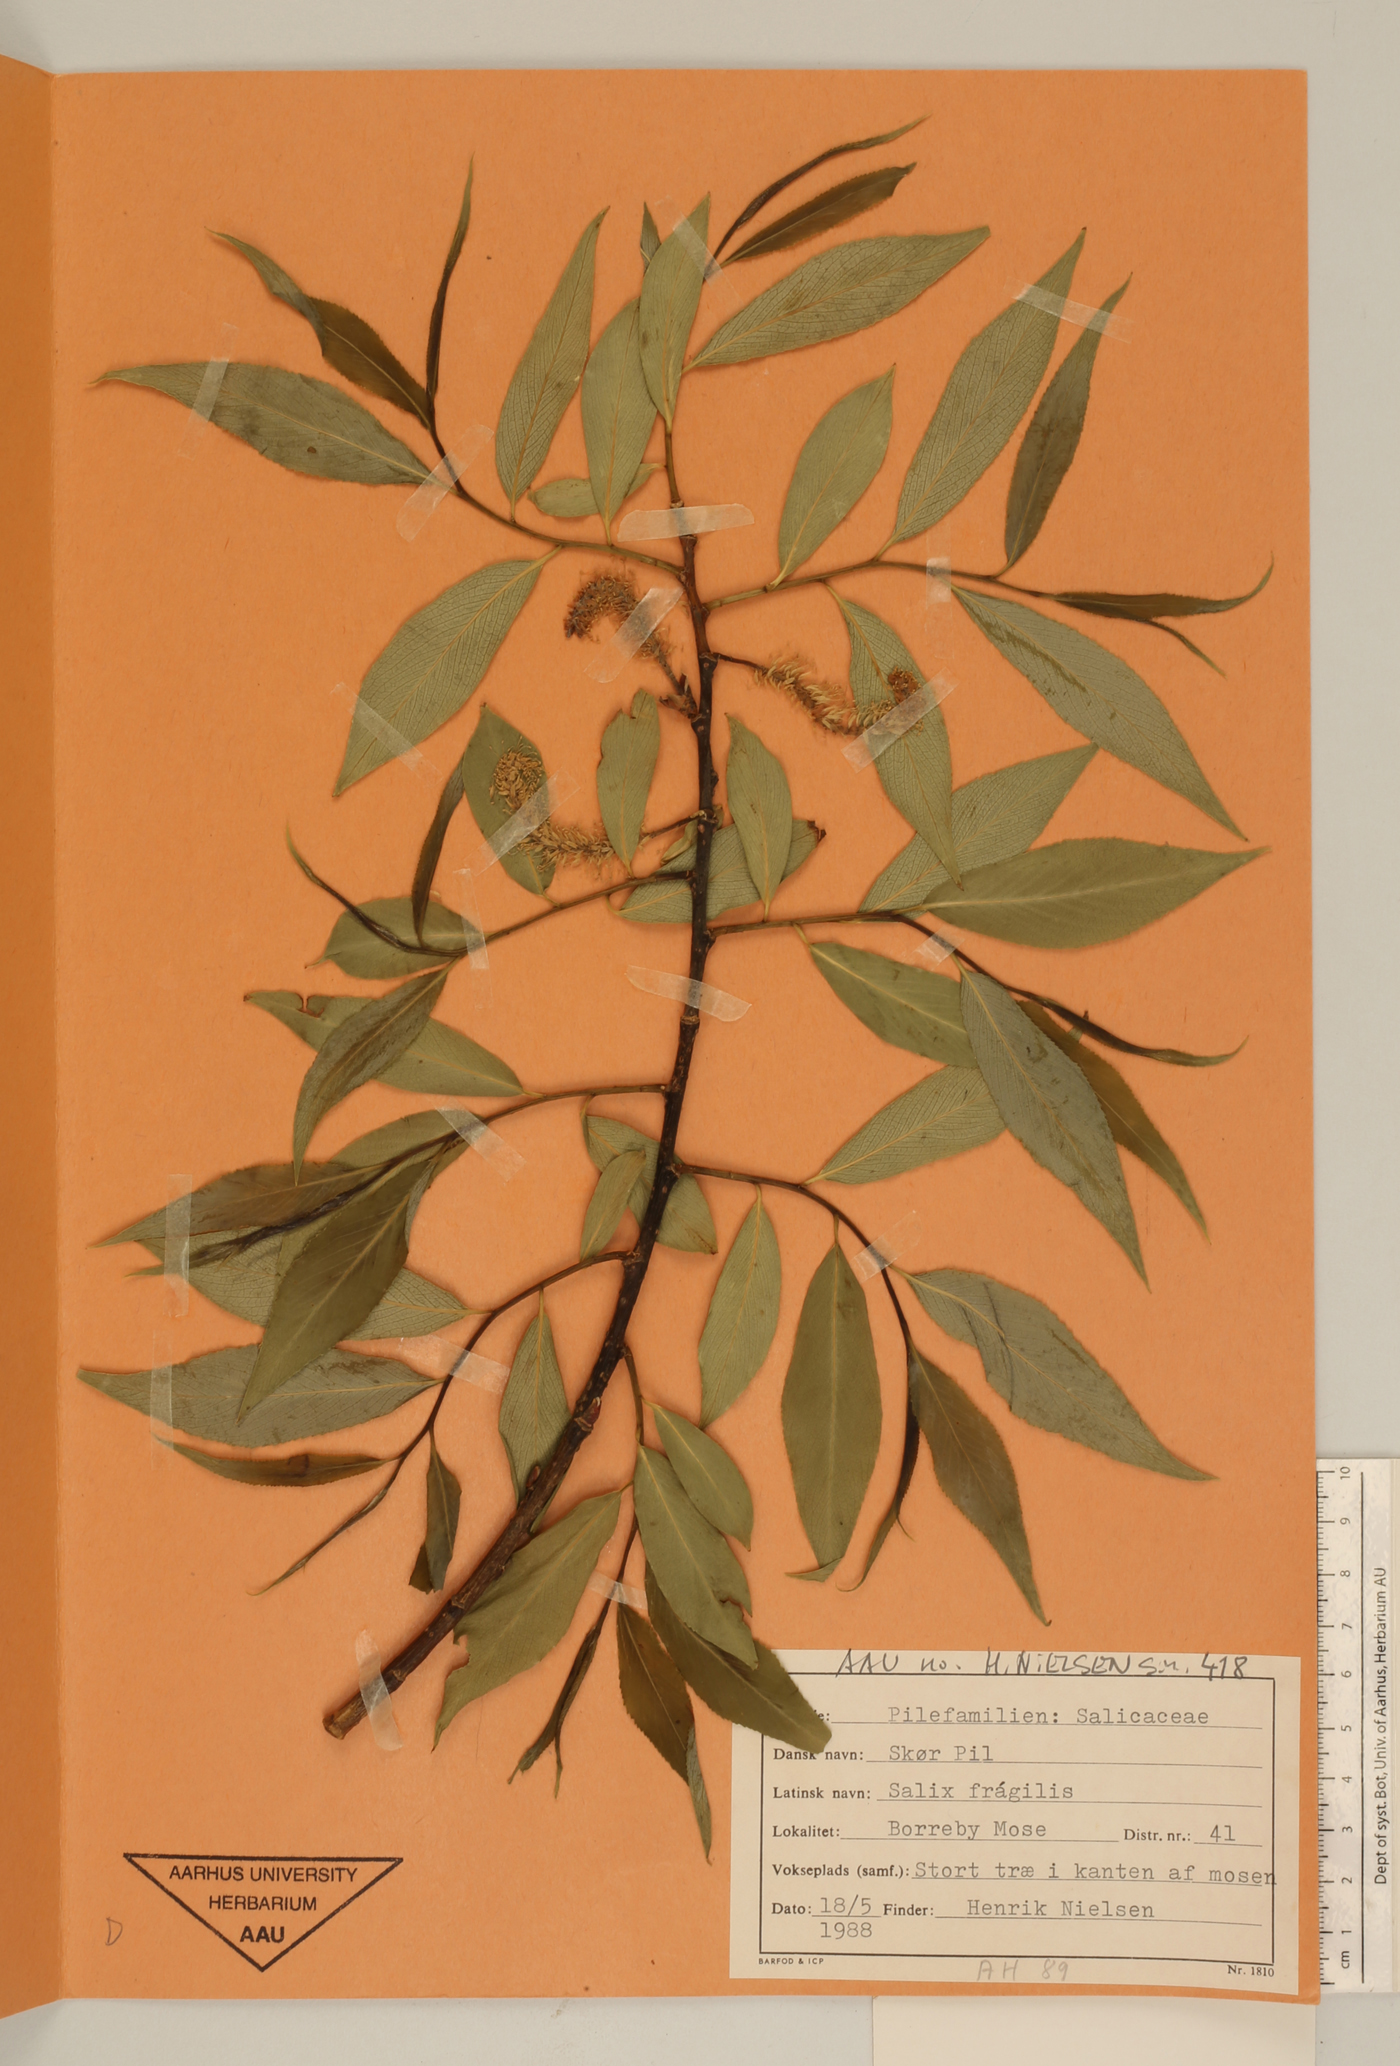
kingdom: Plantae
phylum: Tracheophyta
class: Magnoliopsida
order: Malpighiales
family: Salicaceae
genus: Salix
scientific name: Salix fragilis
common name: Crack willow
